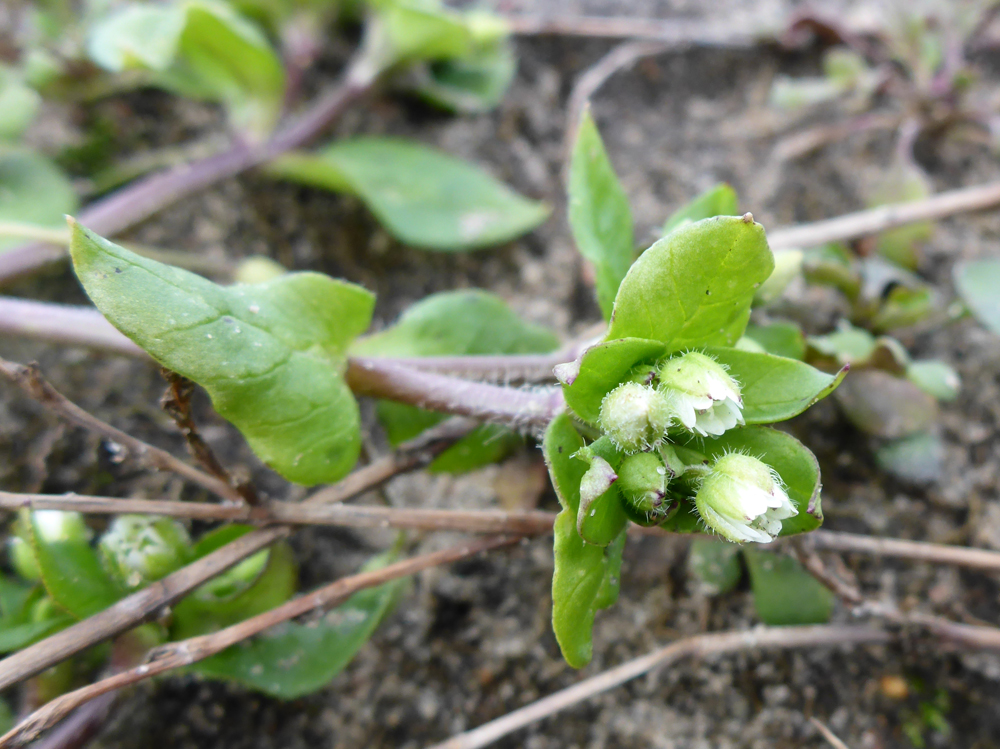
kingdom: Plantae
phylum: Tracheophyta
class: Magnoliopsida
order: Caryophyllales
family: Caryophyllaceae
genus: Stellaria
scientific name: Stellaria media
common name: Common chickweed
